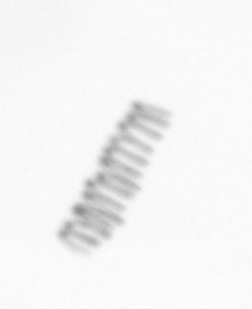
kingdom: Chromista
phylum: Ochrophyta
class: Bacillariophyceae
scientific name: Bacillariophyceae
